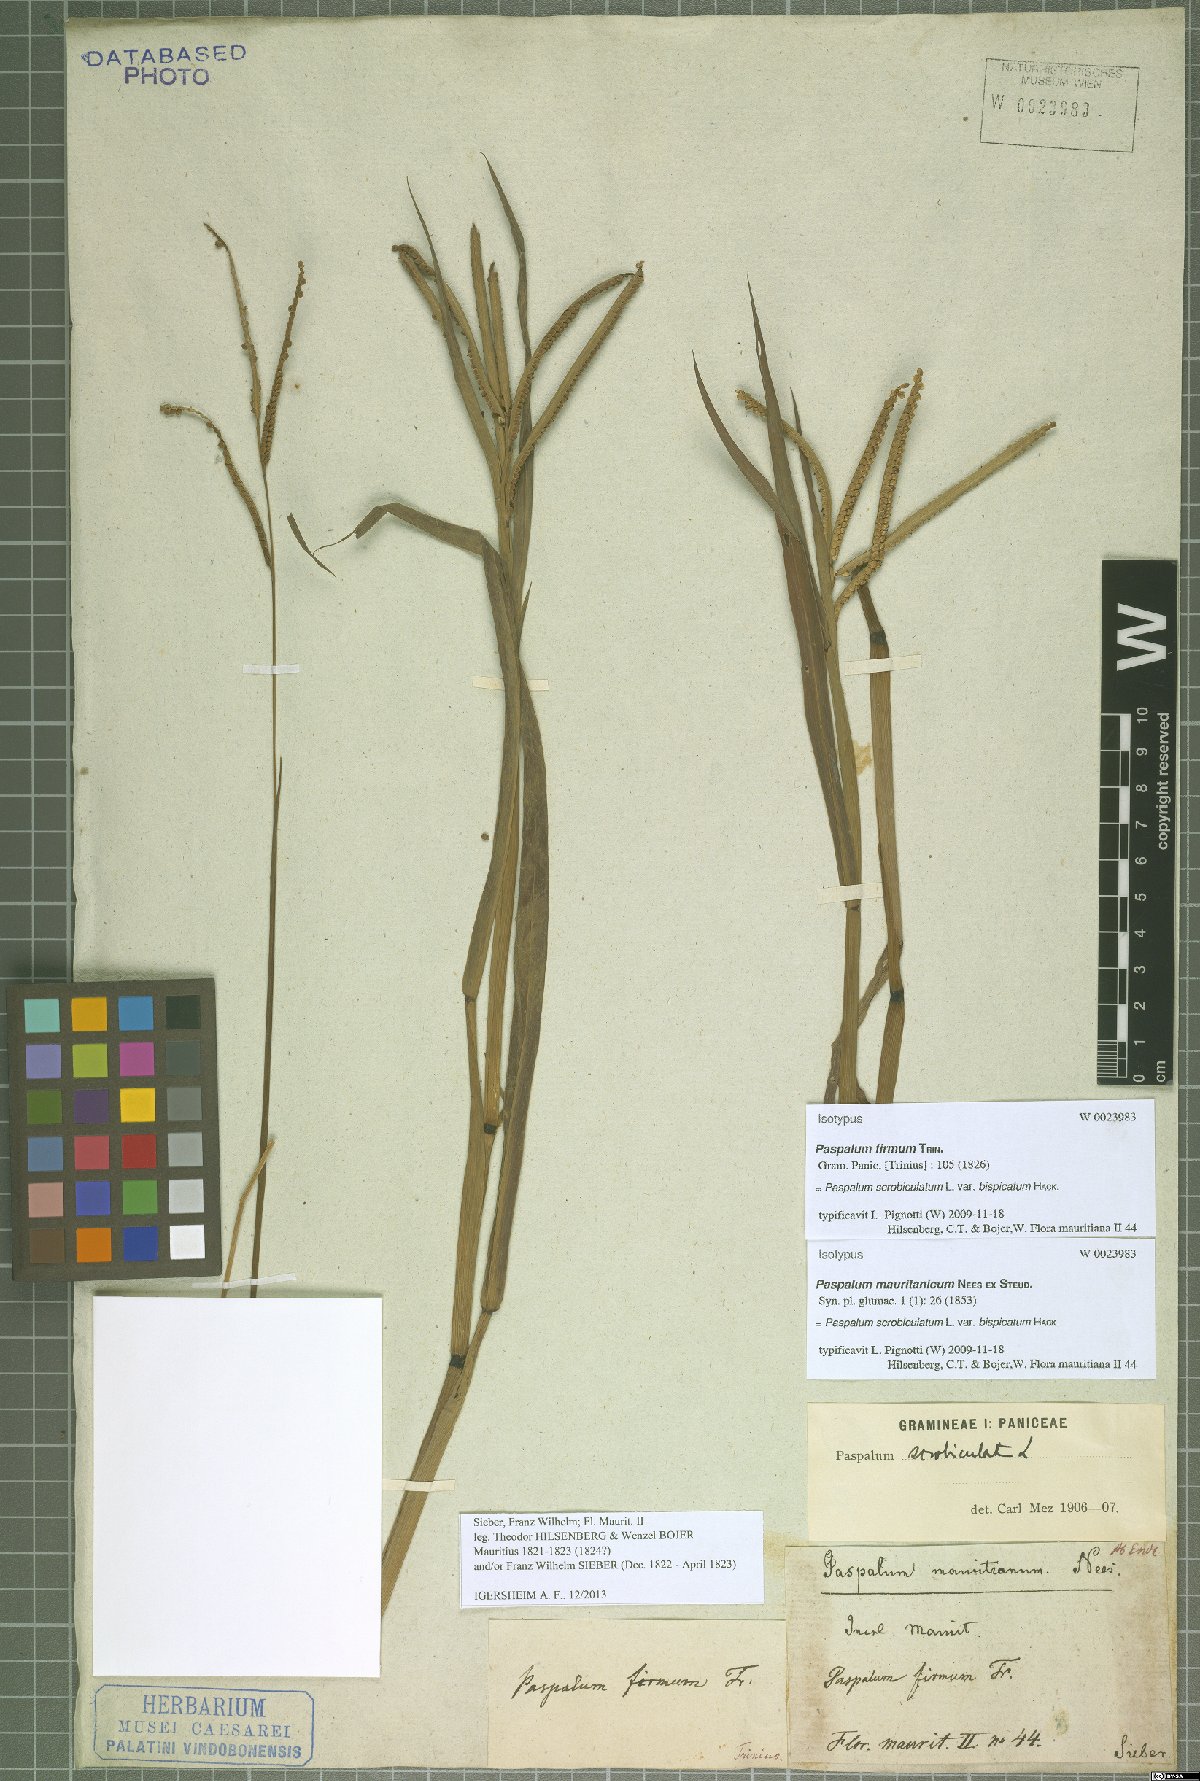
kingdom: Plantae
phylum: Tracheophyta
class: Liliopsida
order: Poales
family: Poaceae
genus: Paspalum
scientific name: Paspalum scrobiculatum
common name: Kodo millet
